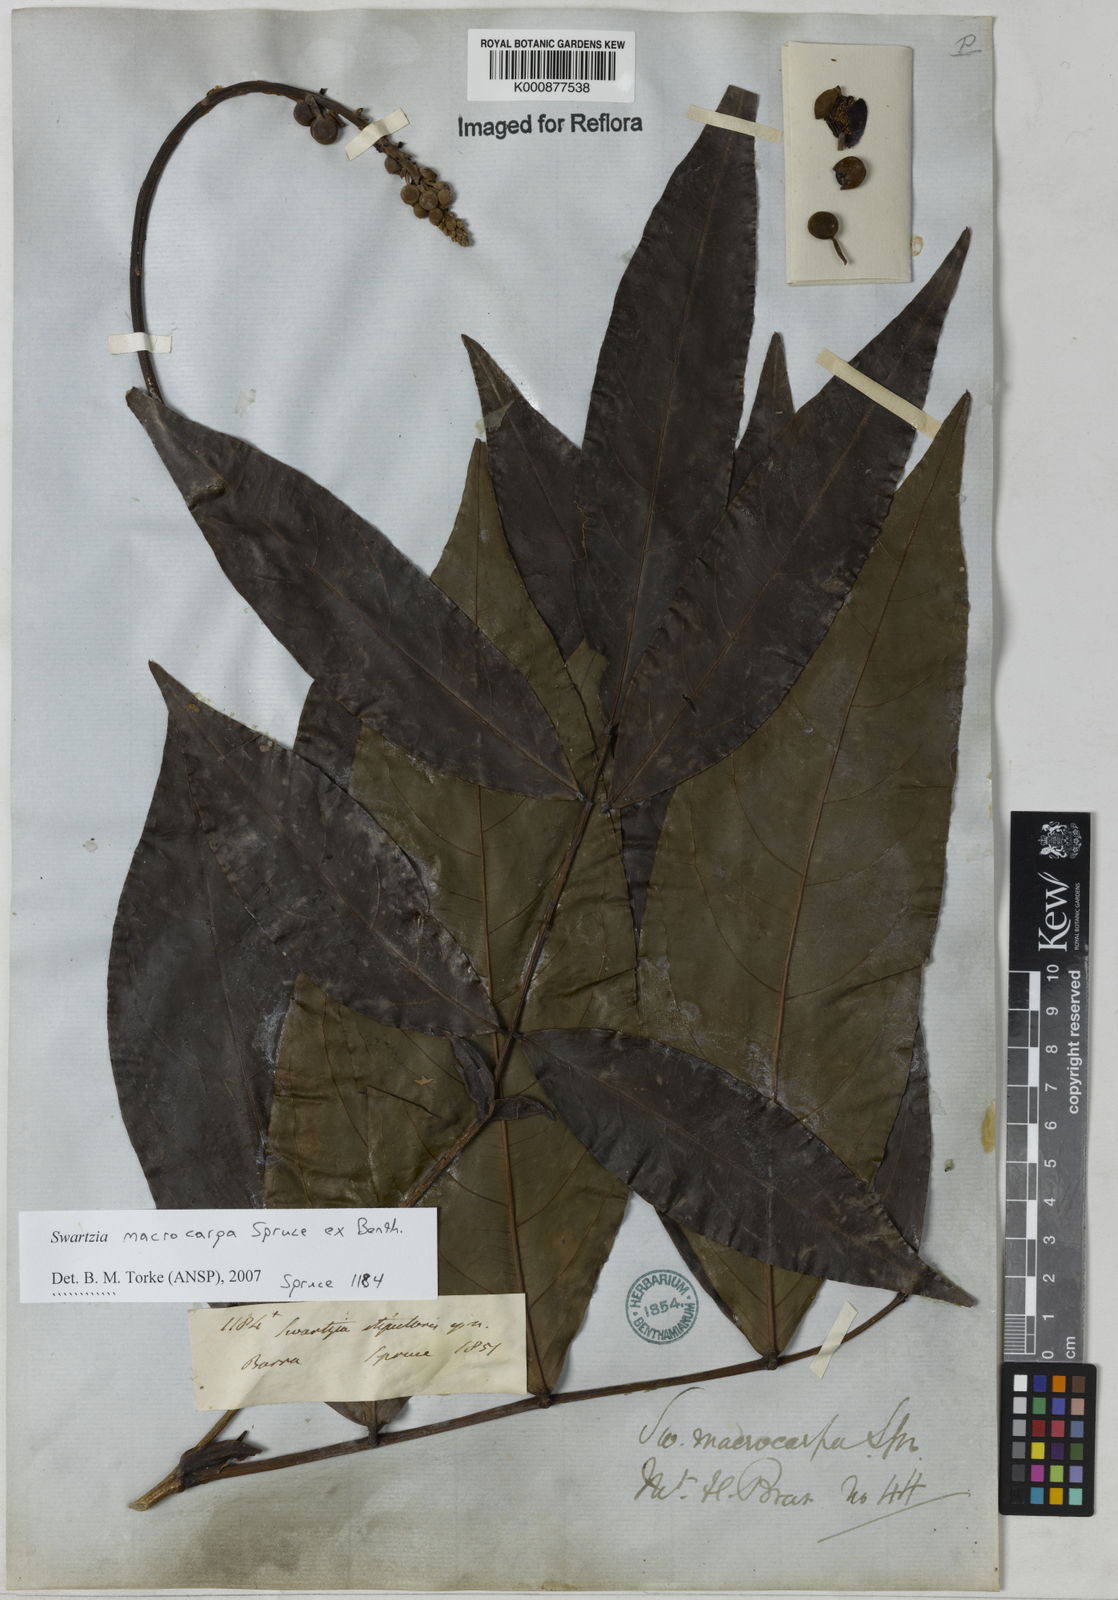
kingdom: Plantae
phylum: Tracheophyta
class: Magnoliopsida
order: Fabales
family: Fabaceae
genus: Swartzia
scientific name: Swartzia macrocarpa
